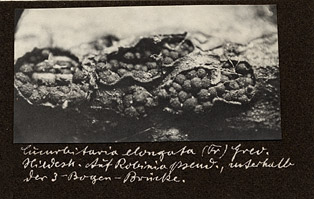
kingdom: Fungi
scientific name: Fungi
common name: Fungi
